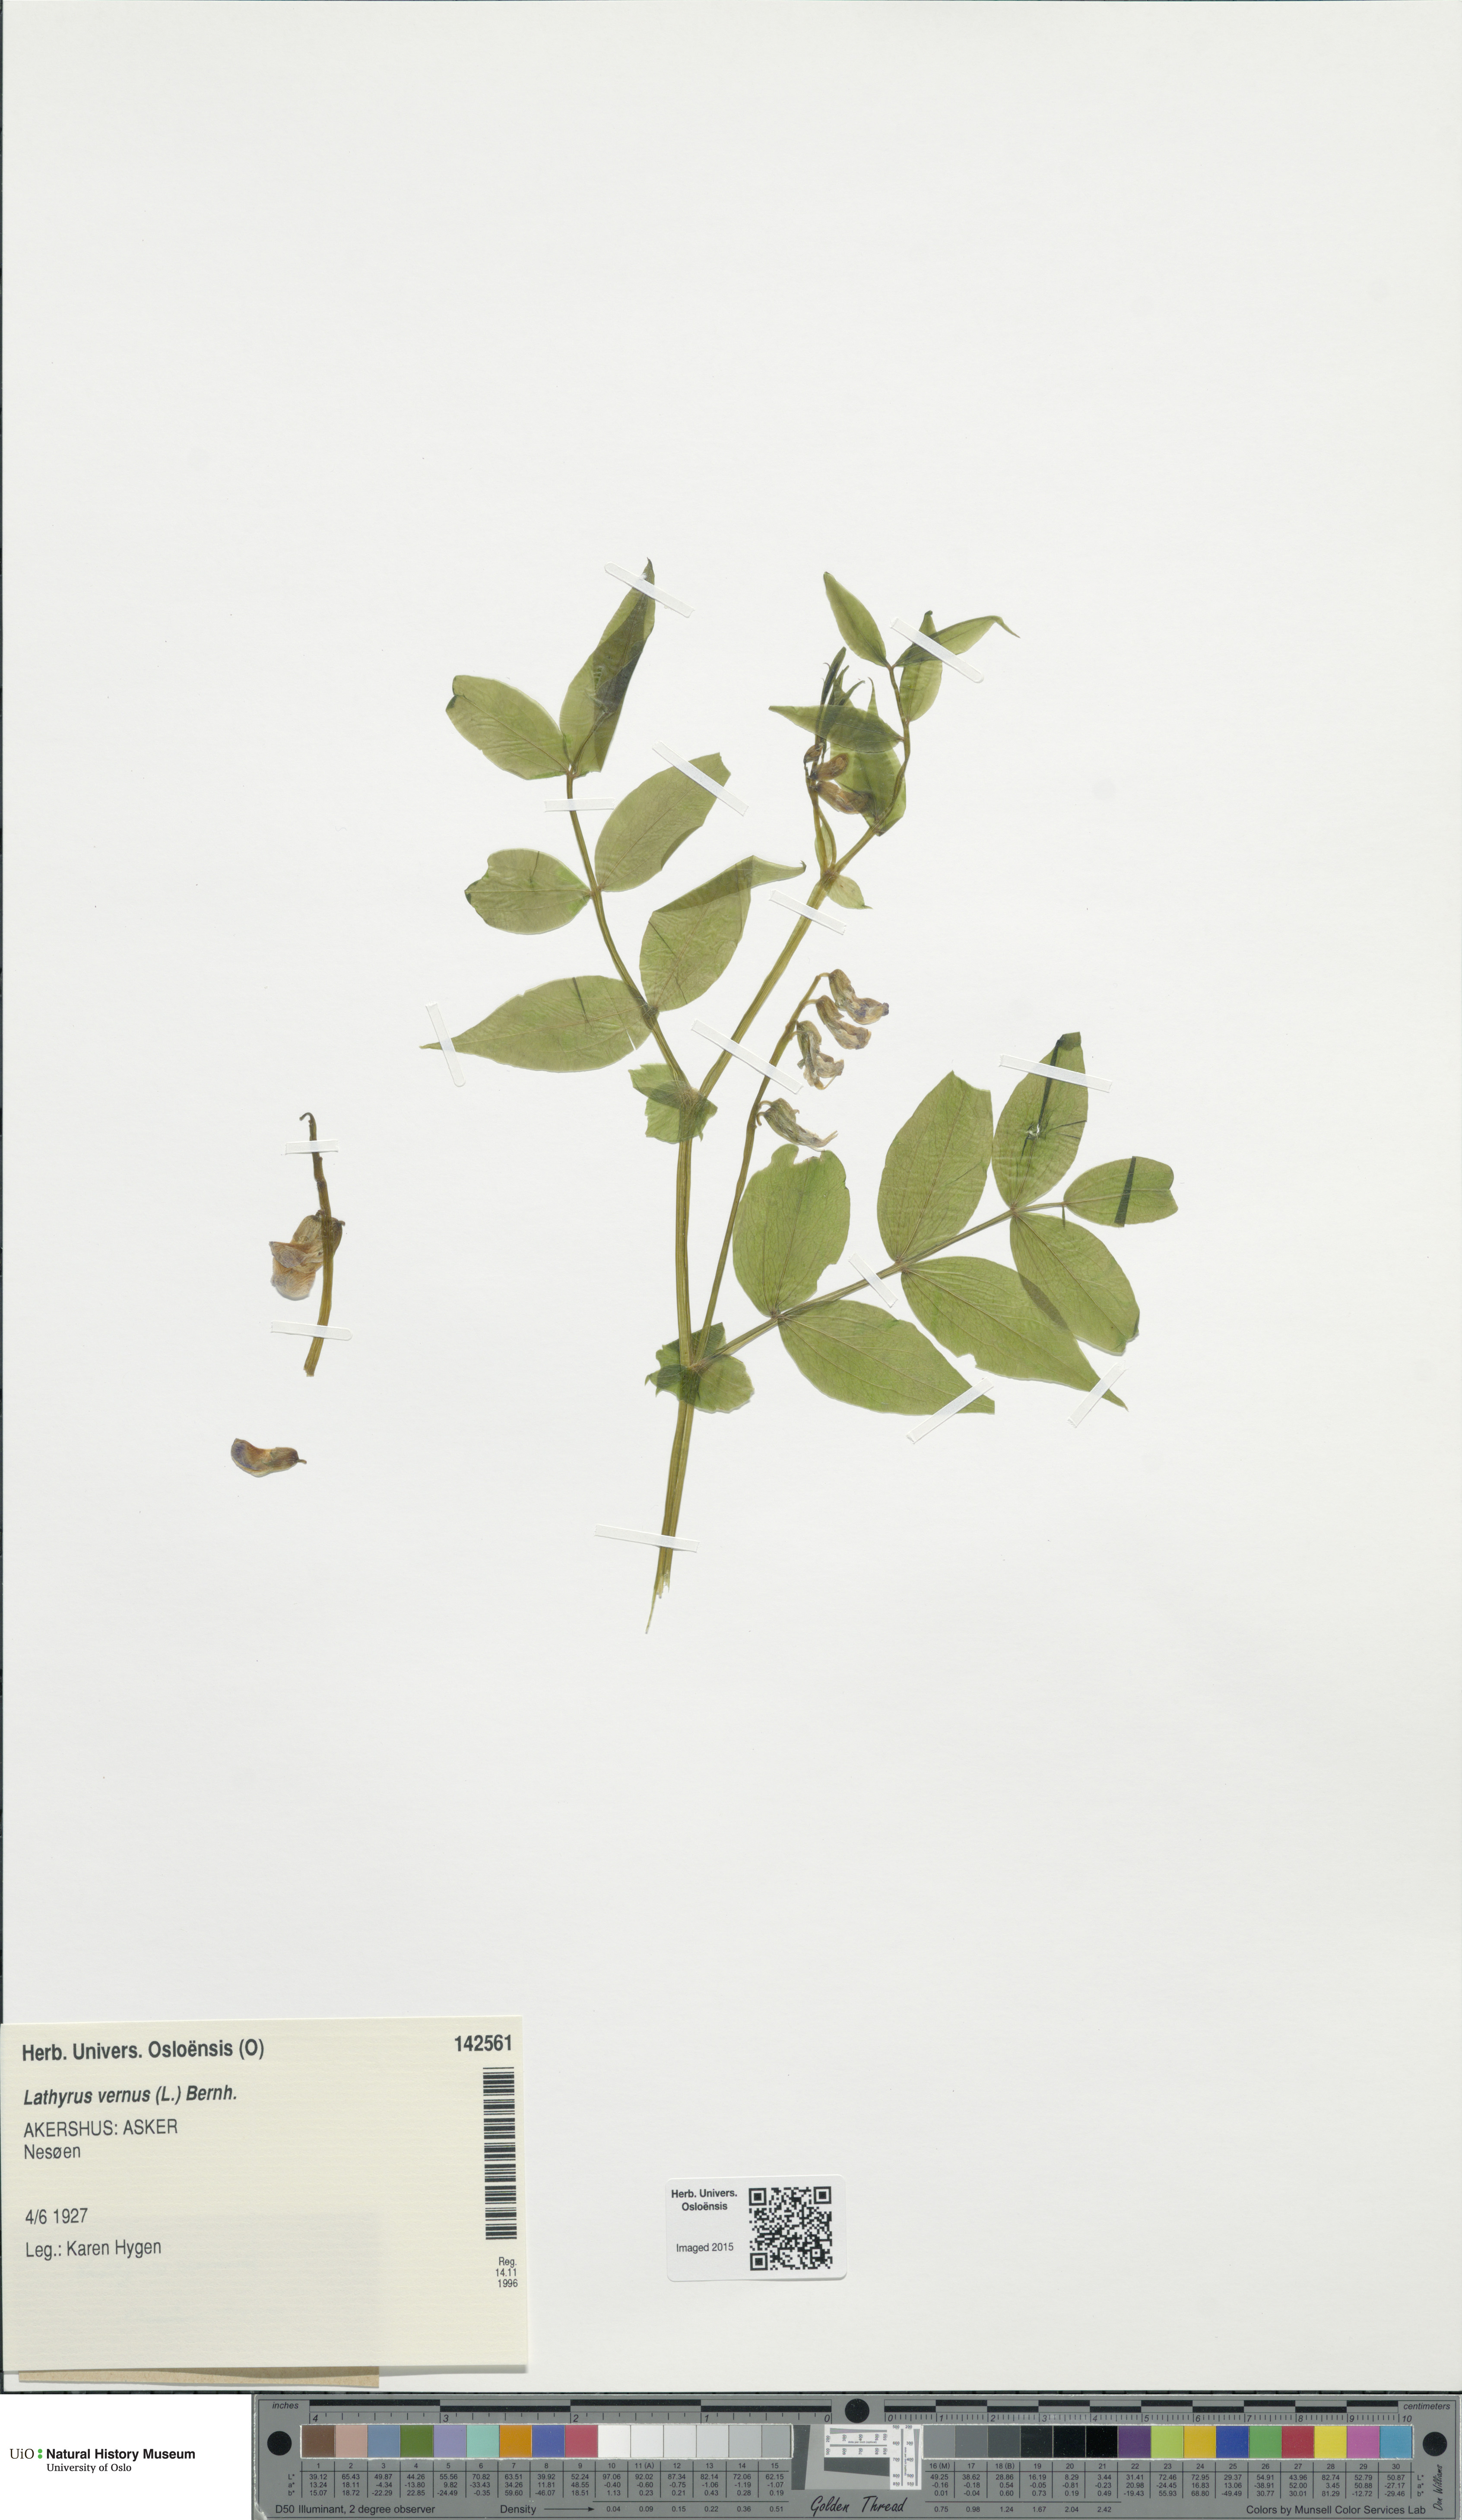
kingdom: Plantae
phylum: Tracheophyta
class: Magnoliopsida
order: Fabales
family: Fabaceae
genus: Lathyrus
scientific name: Lathyrus vernus
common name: Spring pea
